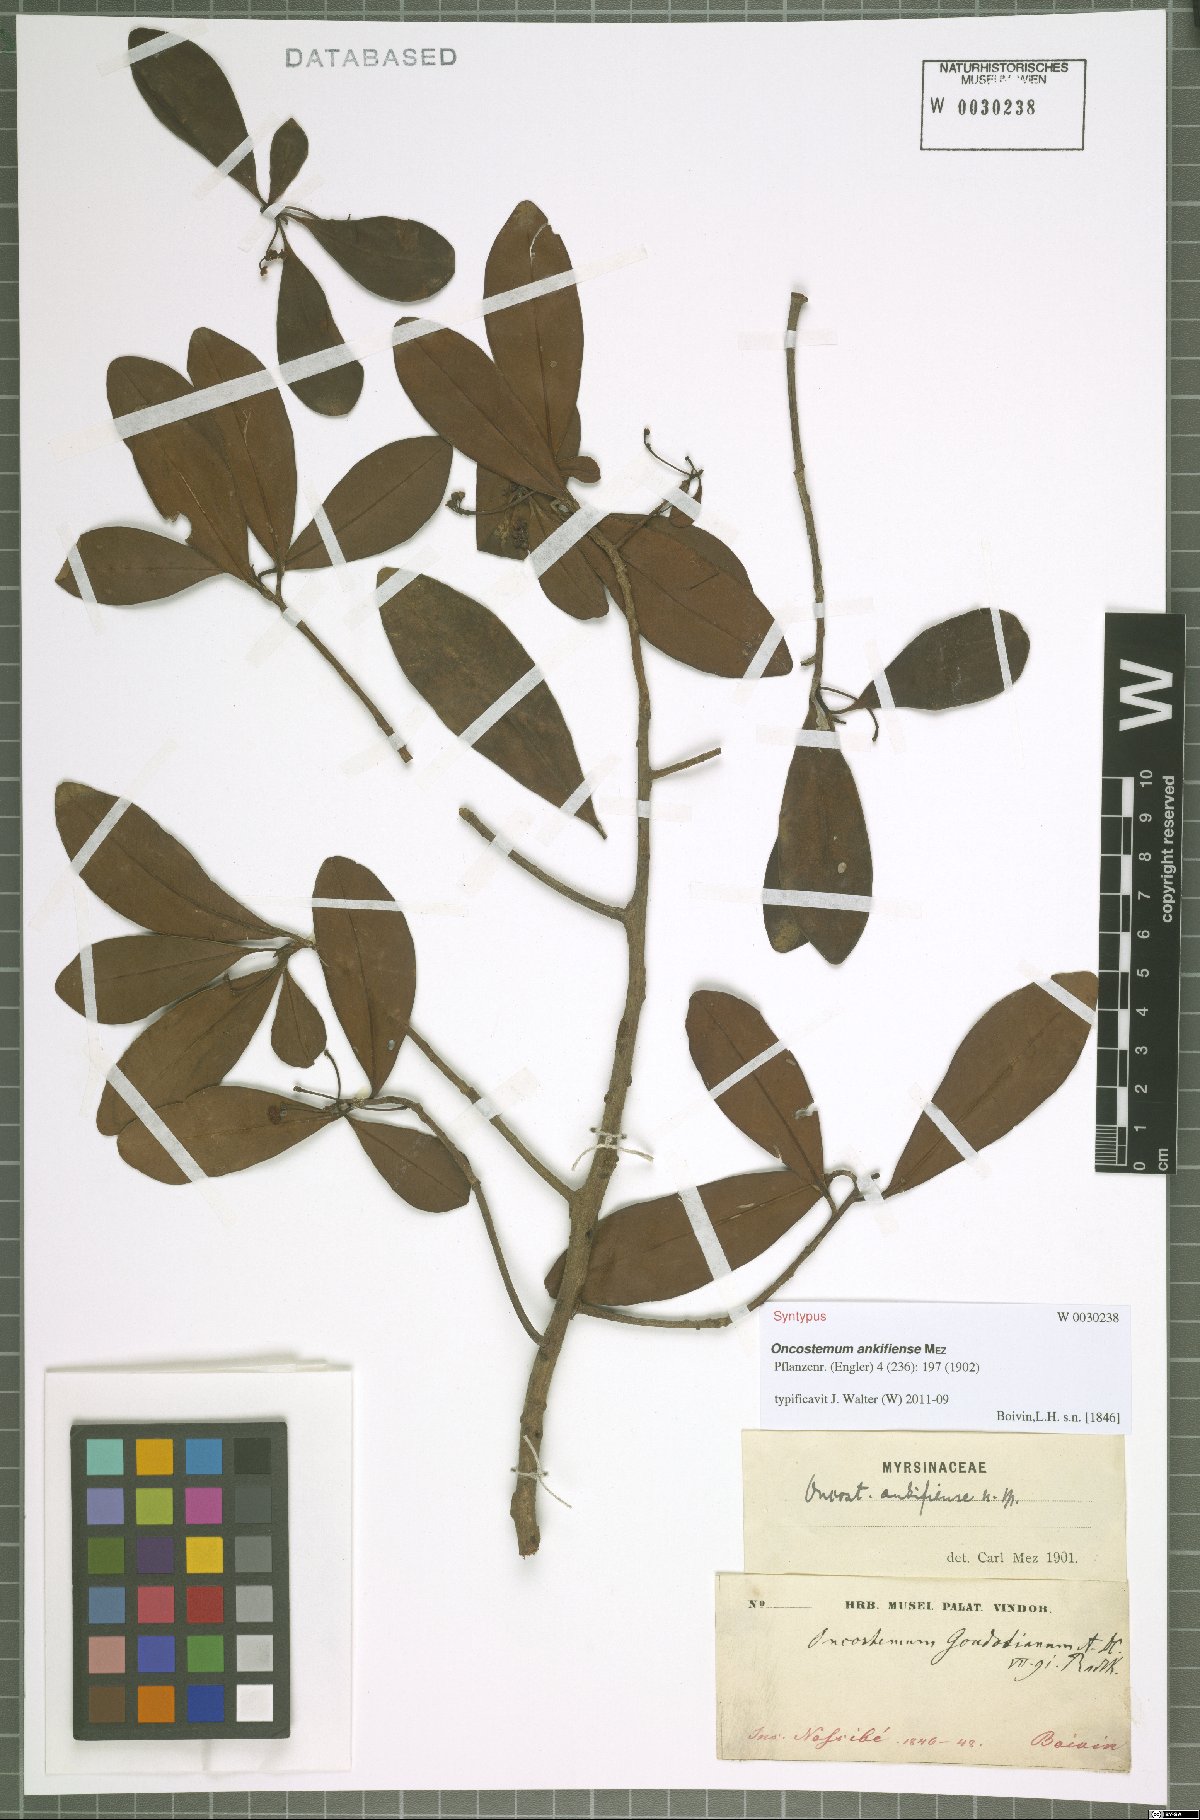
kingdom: Plantae
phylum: Tracheophyta
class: Magnoliopsida
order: Ericales
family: Primulaceae
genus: Oncostemum
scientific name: Oncostemum ankifiense
